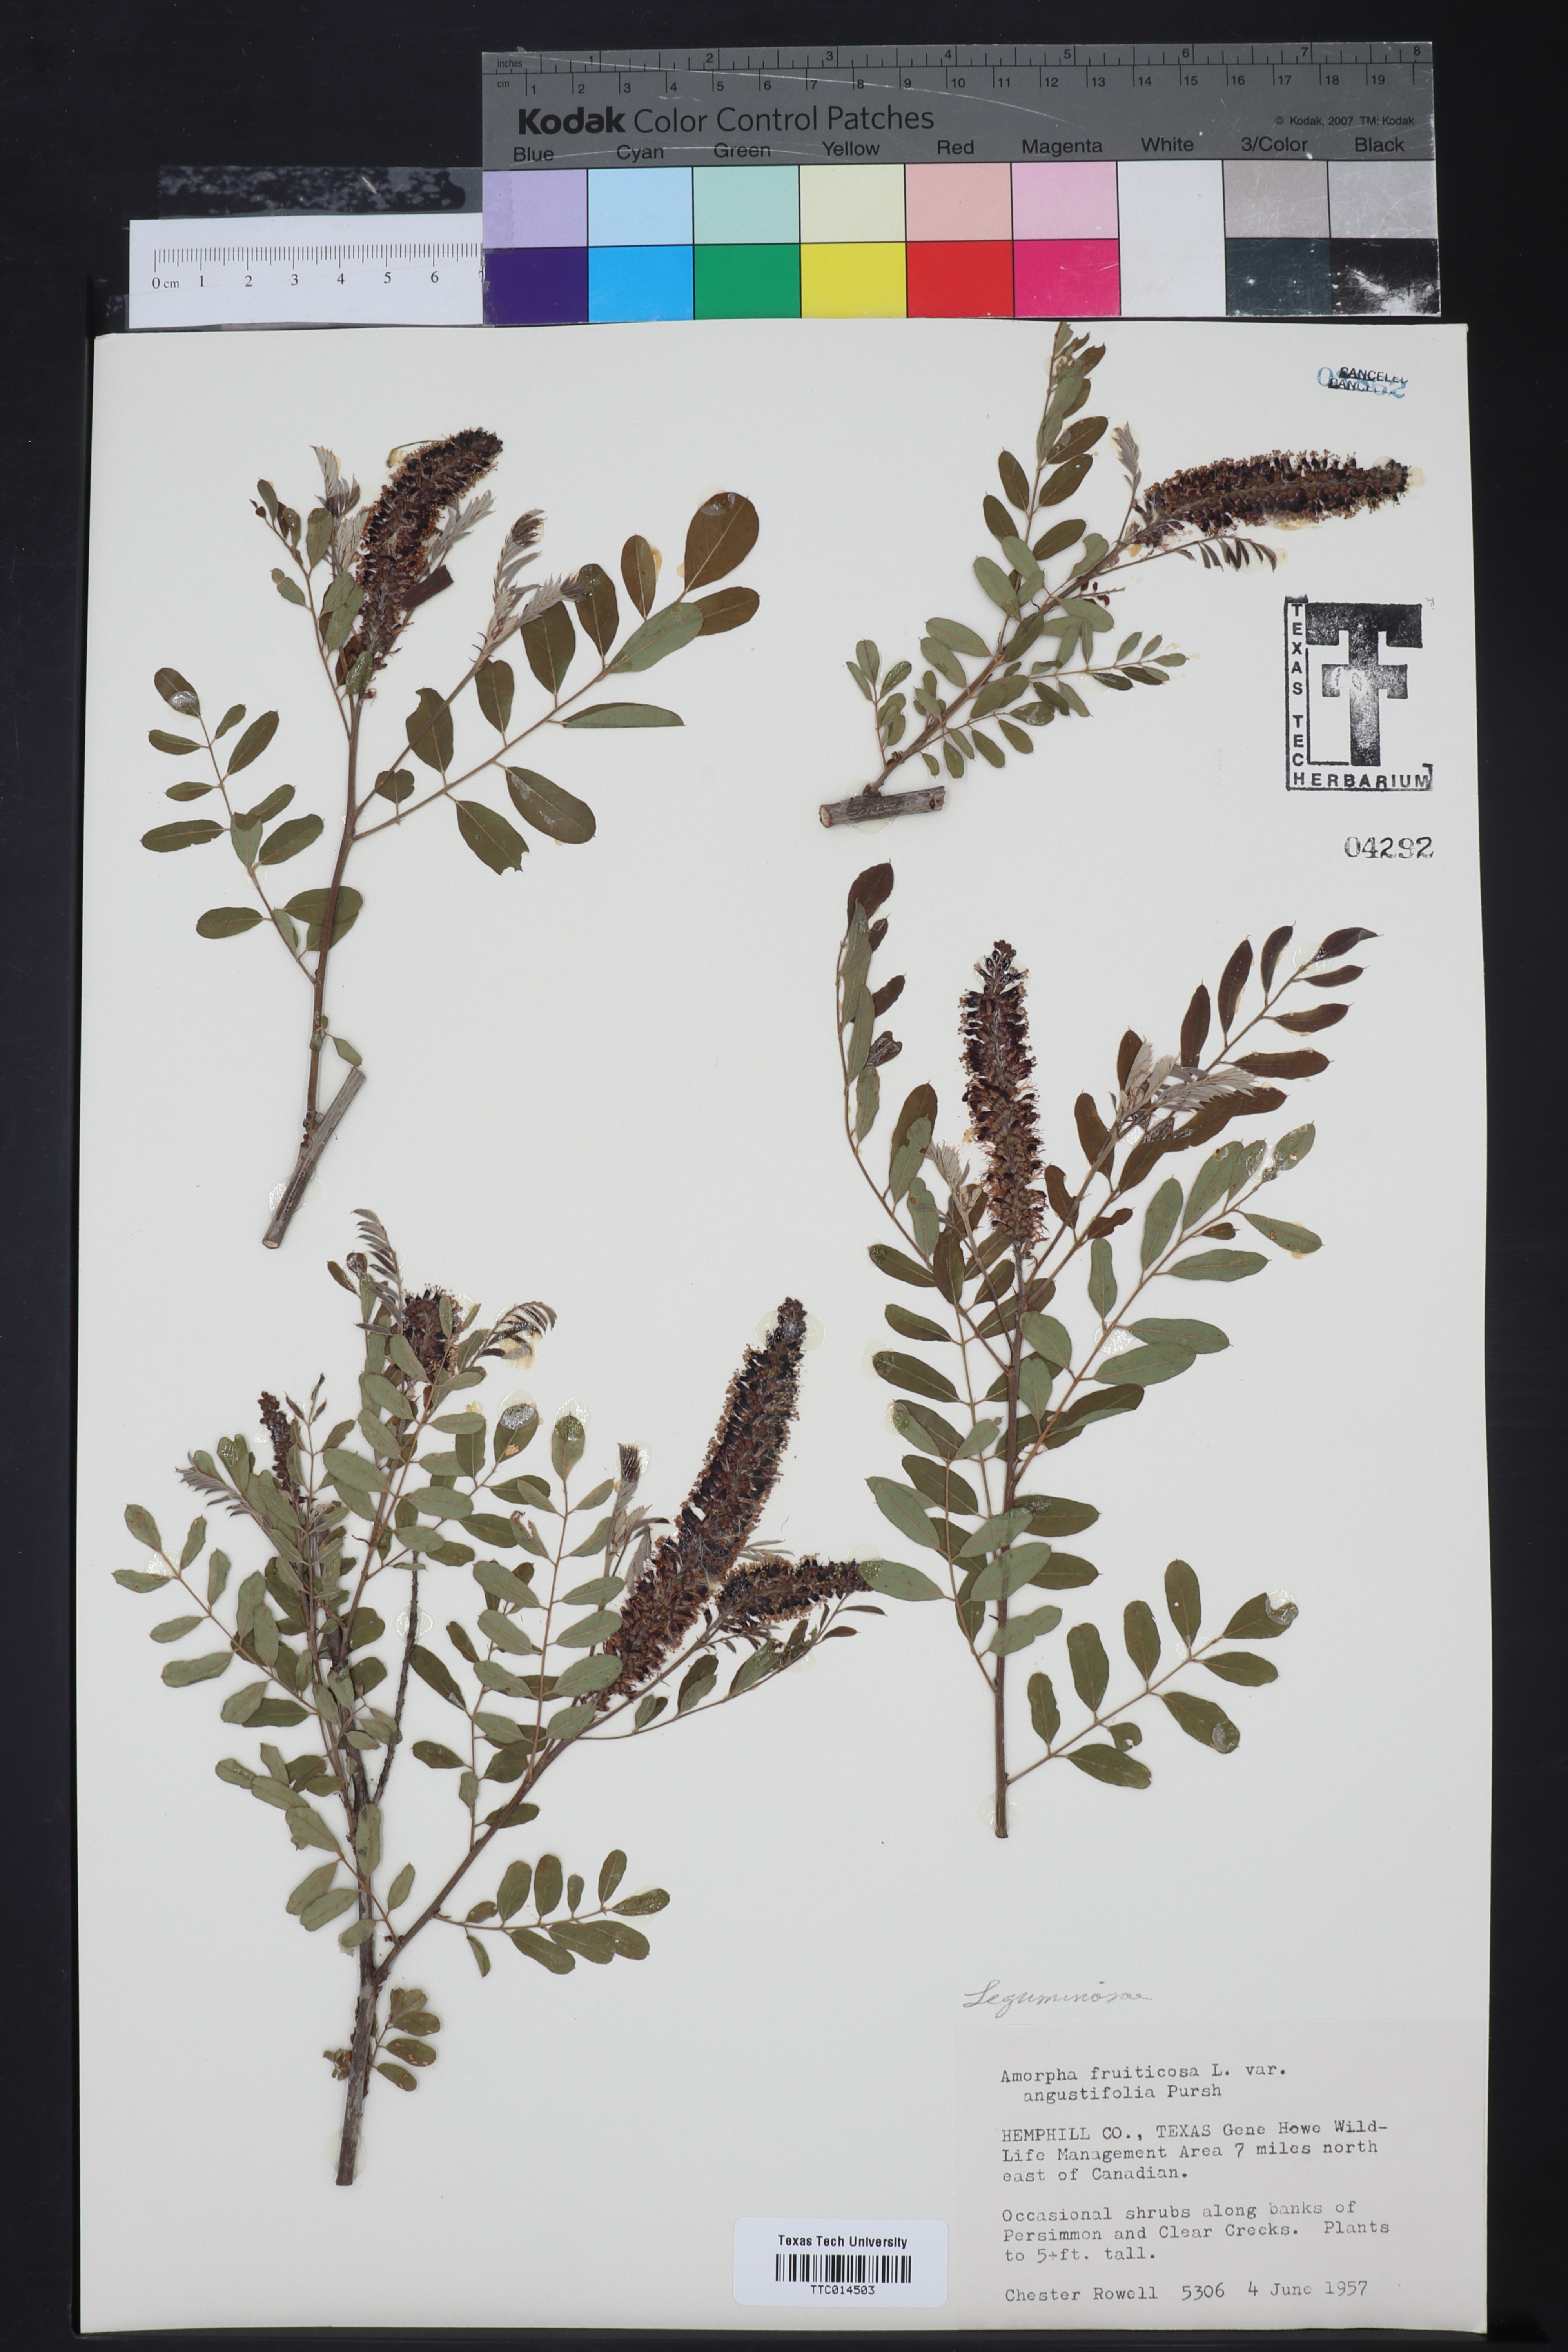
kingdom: Plantae
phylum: Tracheophyta
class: Magnoliopsida
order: Fabales
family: Fabaceae
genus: Amorpha
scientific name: Amorpha fruticosa
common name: False indigo
